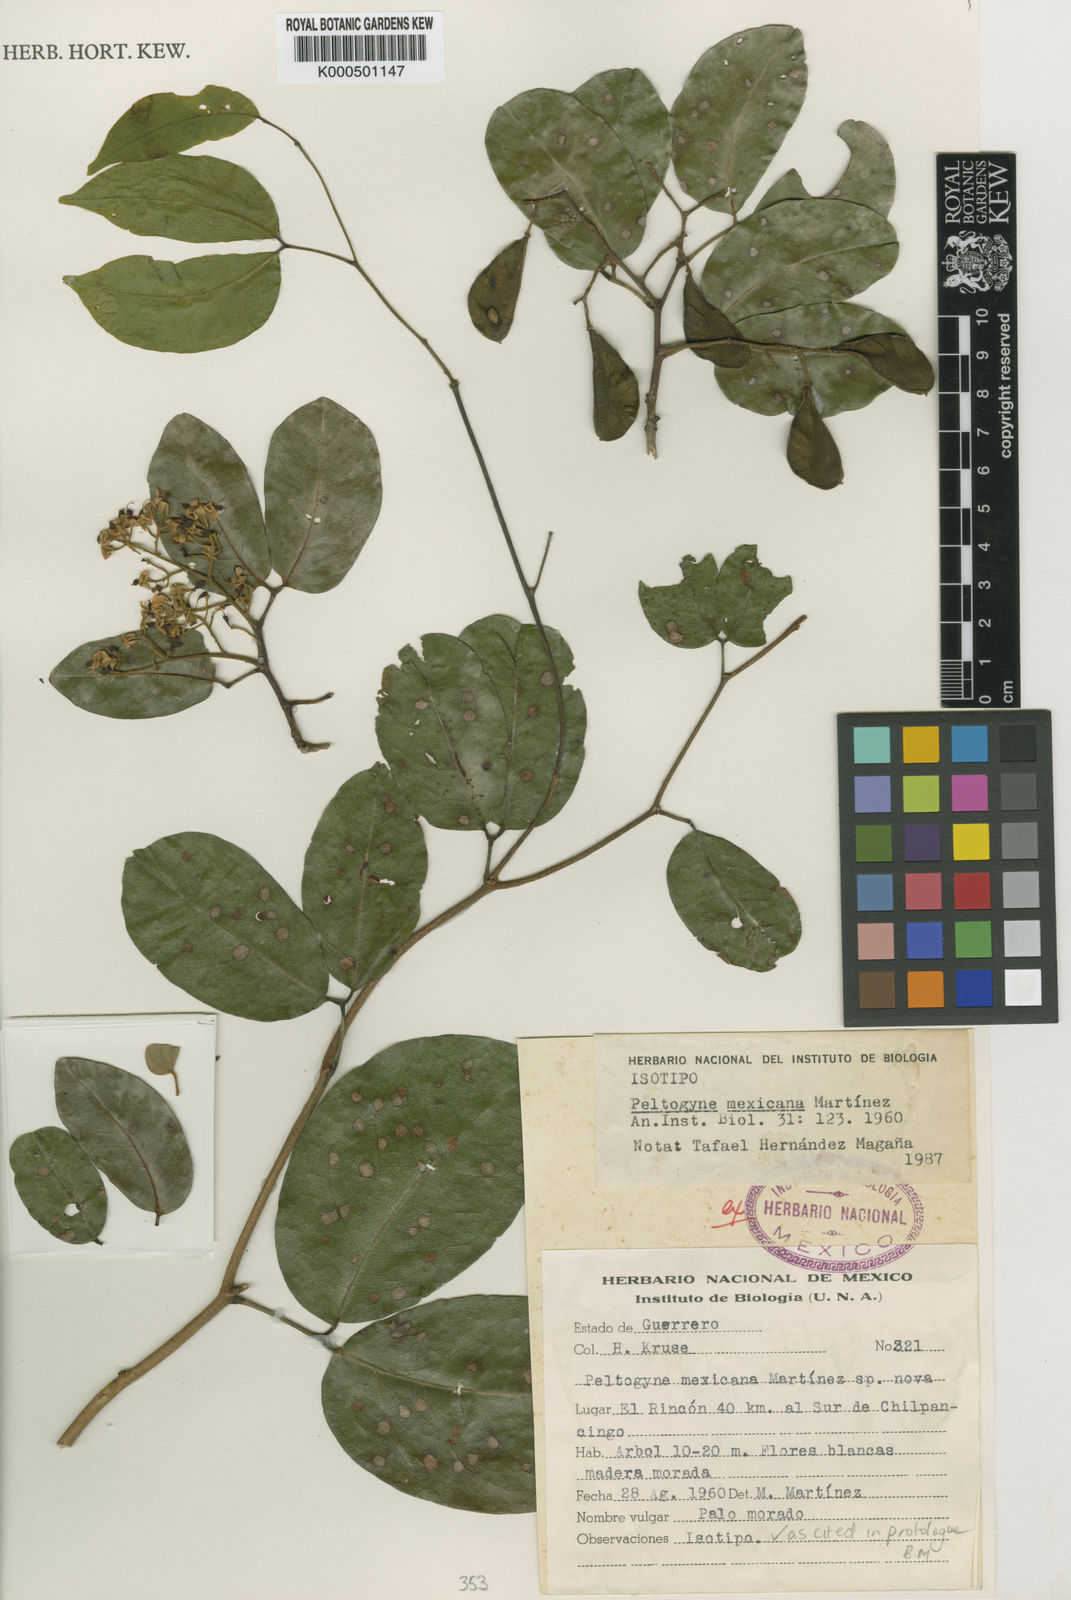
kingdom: Plantae
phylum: Tracheophyta
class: Magnoliopsida
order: Fabales
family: Fabaceae
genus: Peltogyne
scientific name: Peltogyne mexicana
